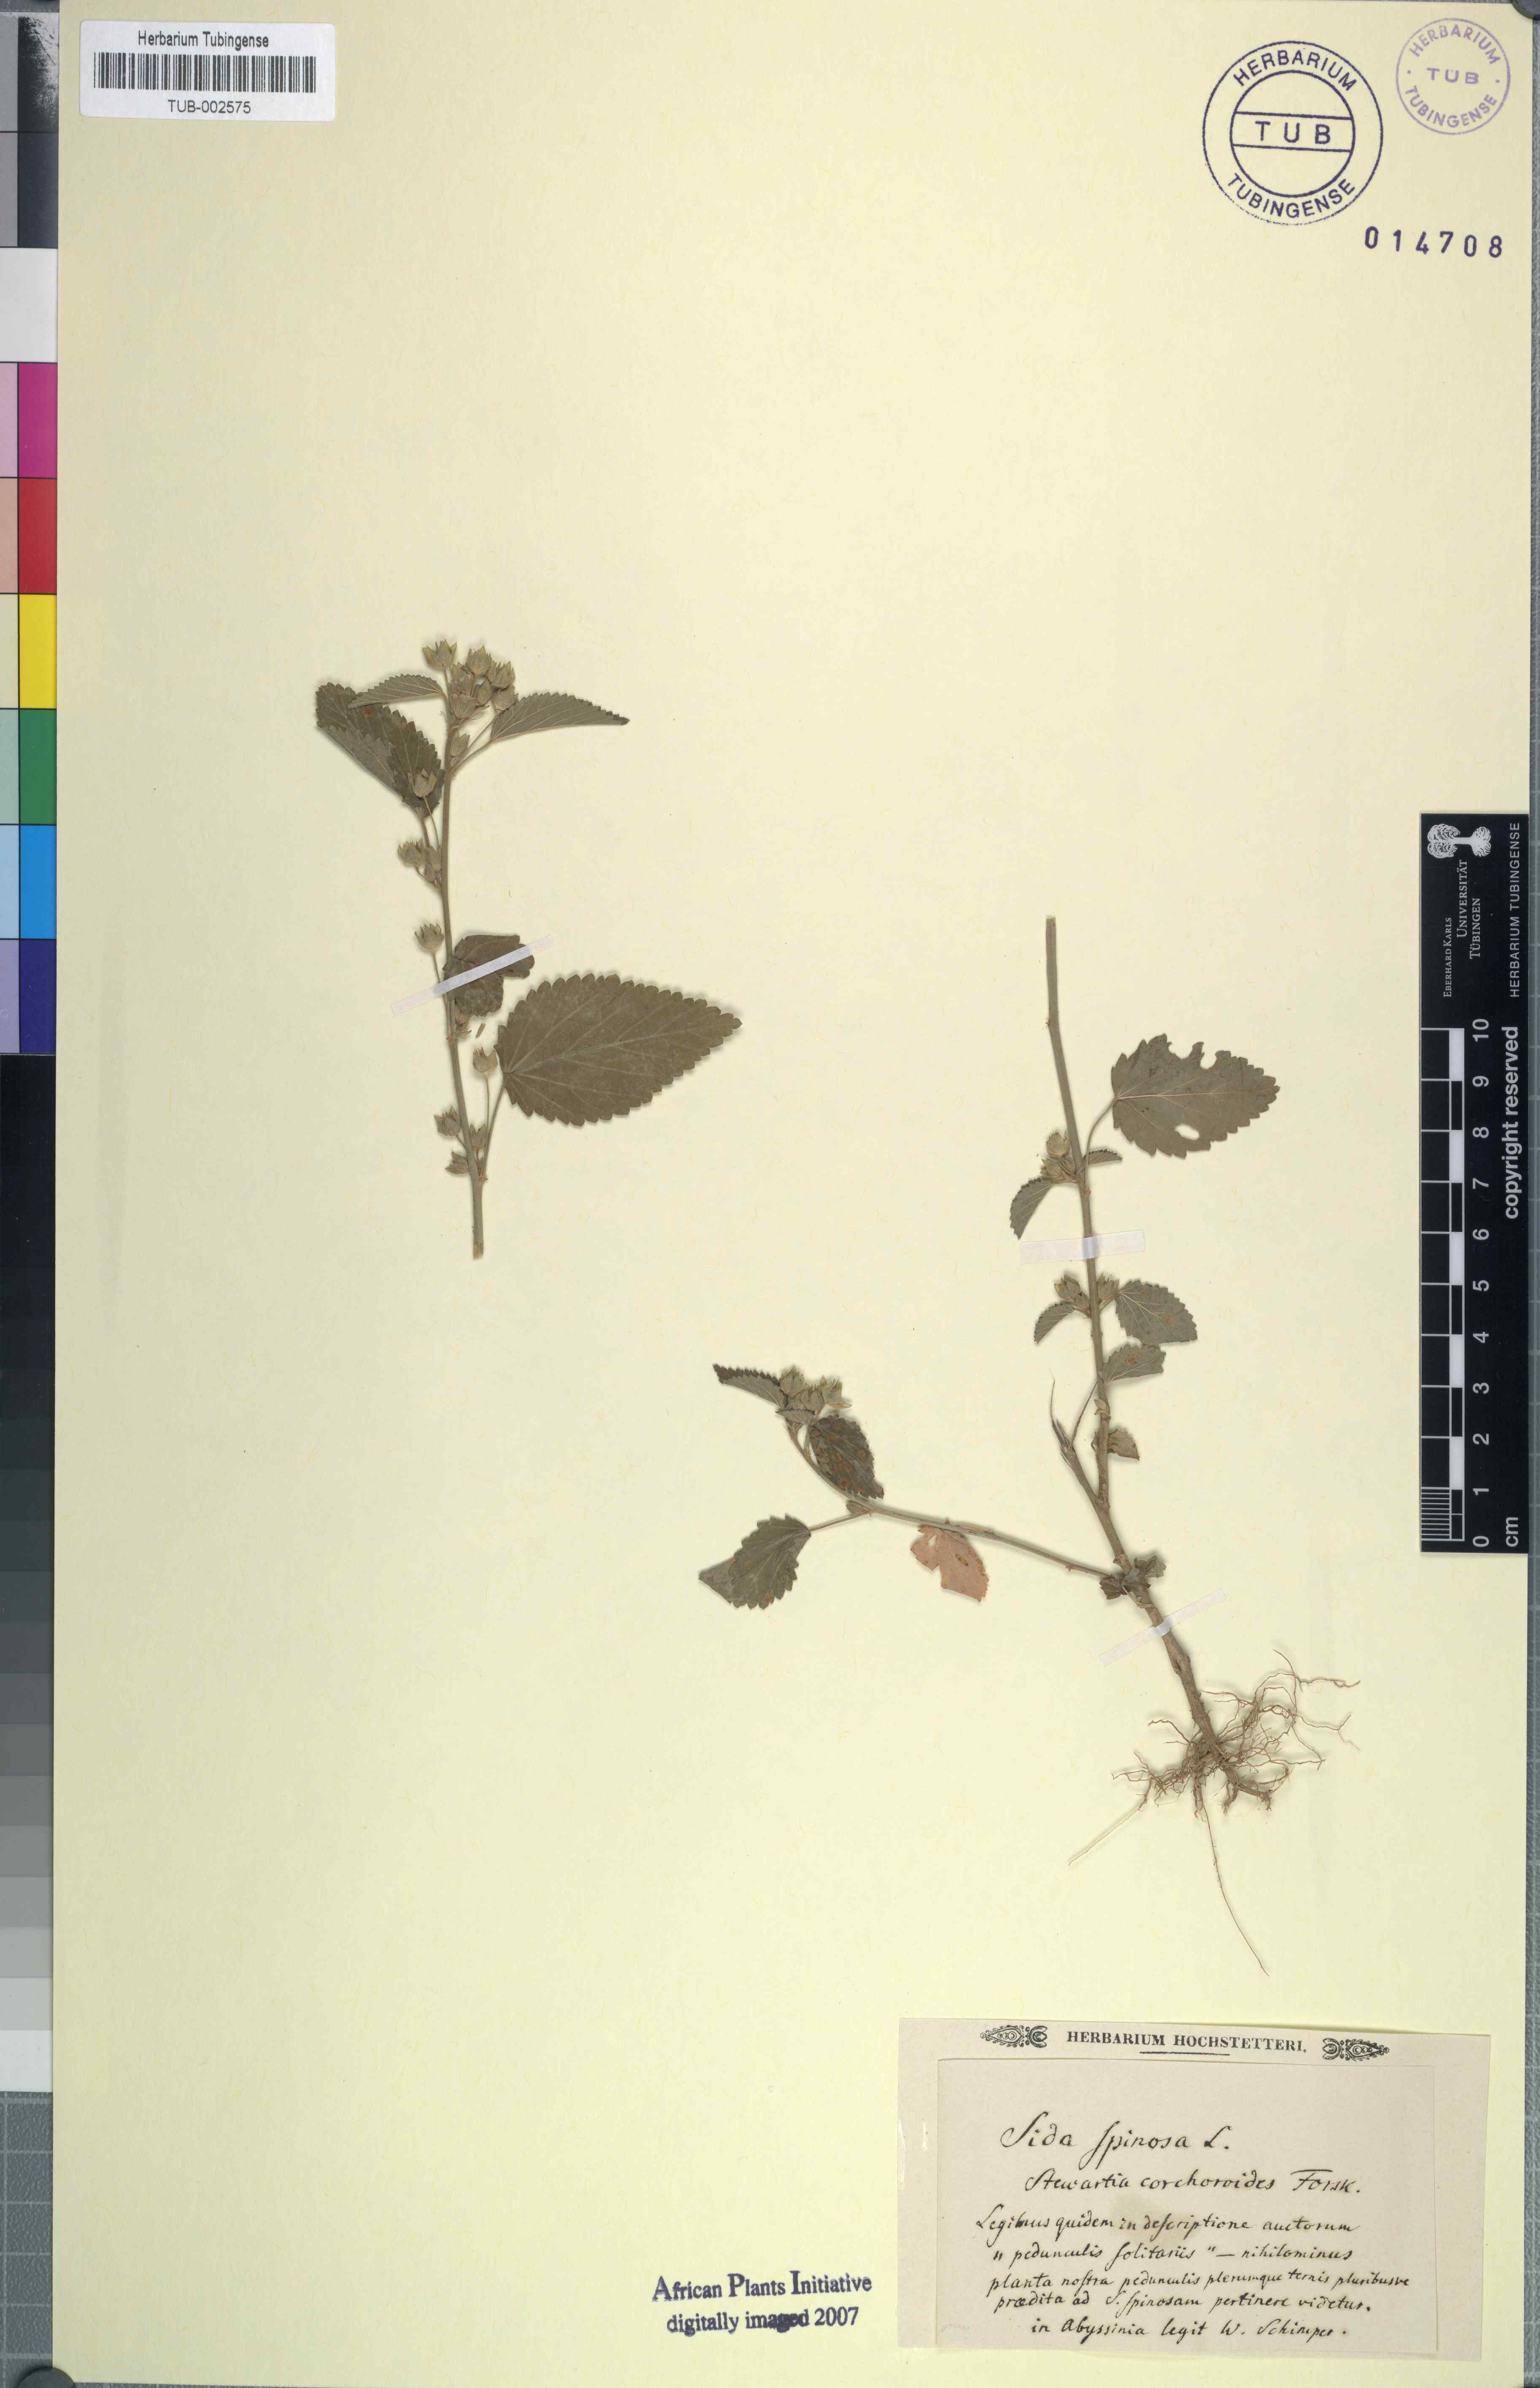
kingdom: Plantae
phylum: Tracheophyta
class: Magnoliopsida
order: Malvales
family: Malvaceae
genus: Sida
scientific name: Sida spinosa
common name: Prickly fanpetals
